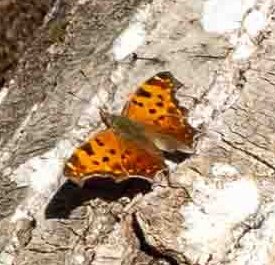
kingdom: Animalia
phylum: Arthropoda
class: Insecta
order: Lepidoptera
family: Nymphalidae
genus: Polygonia
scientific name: Polygonia comma
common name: Eastern Comma
